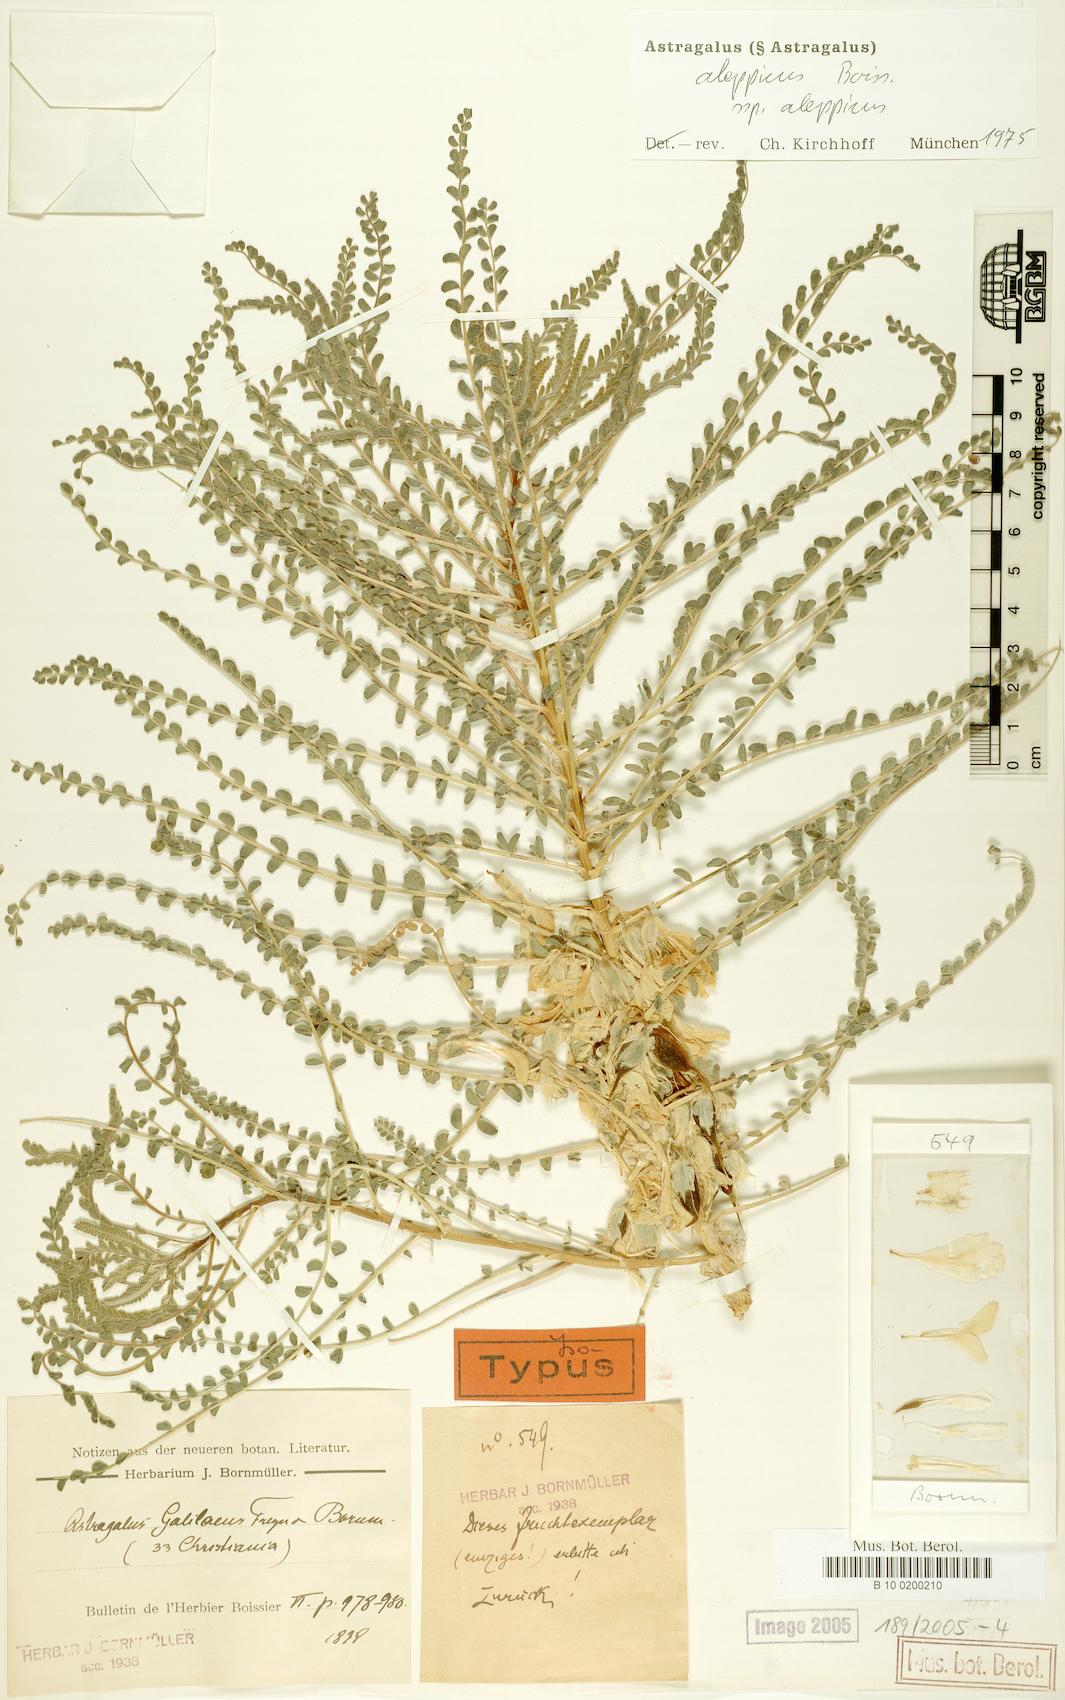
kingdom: Plantae
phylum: Tracheophyta
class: Magnoliopsida
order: Fabales
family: Fabaceae
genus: Astragalus
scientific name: Astragalus aleppicus
